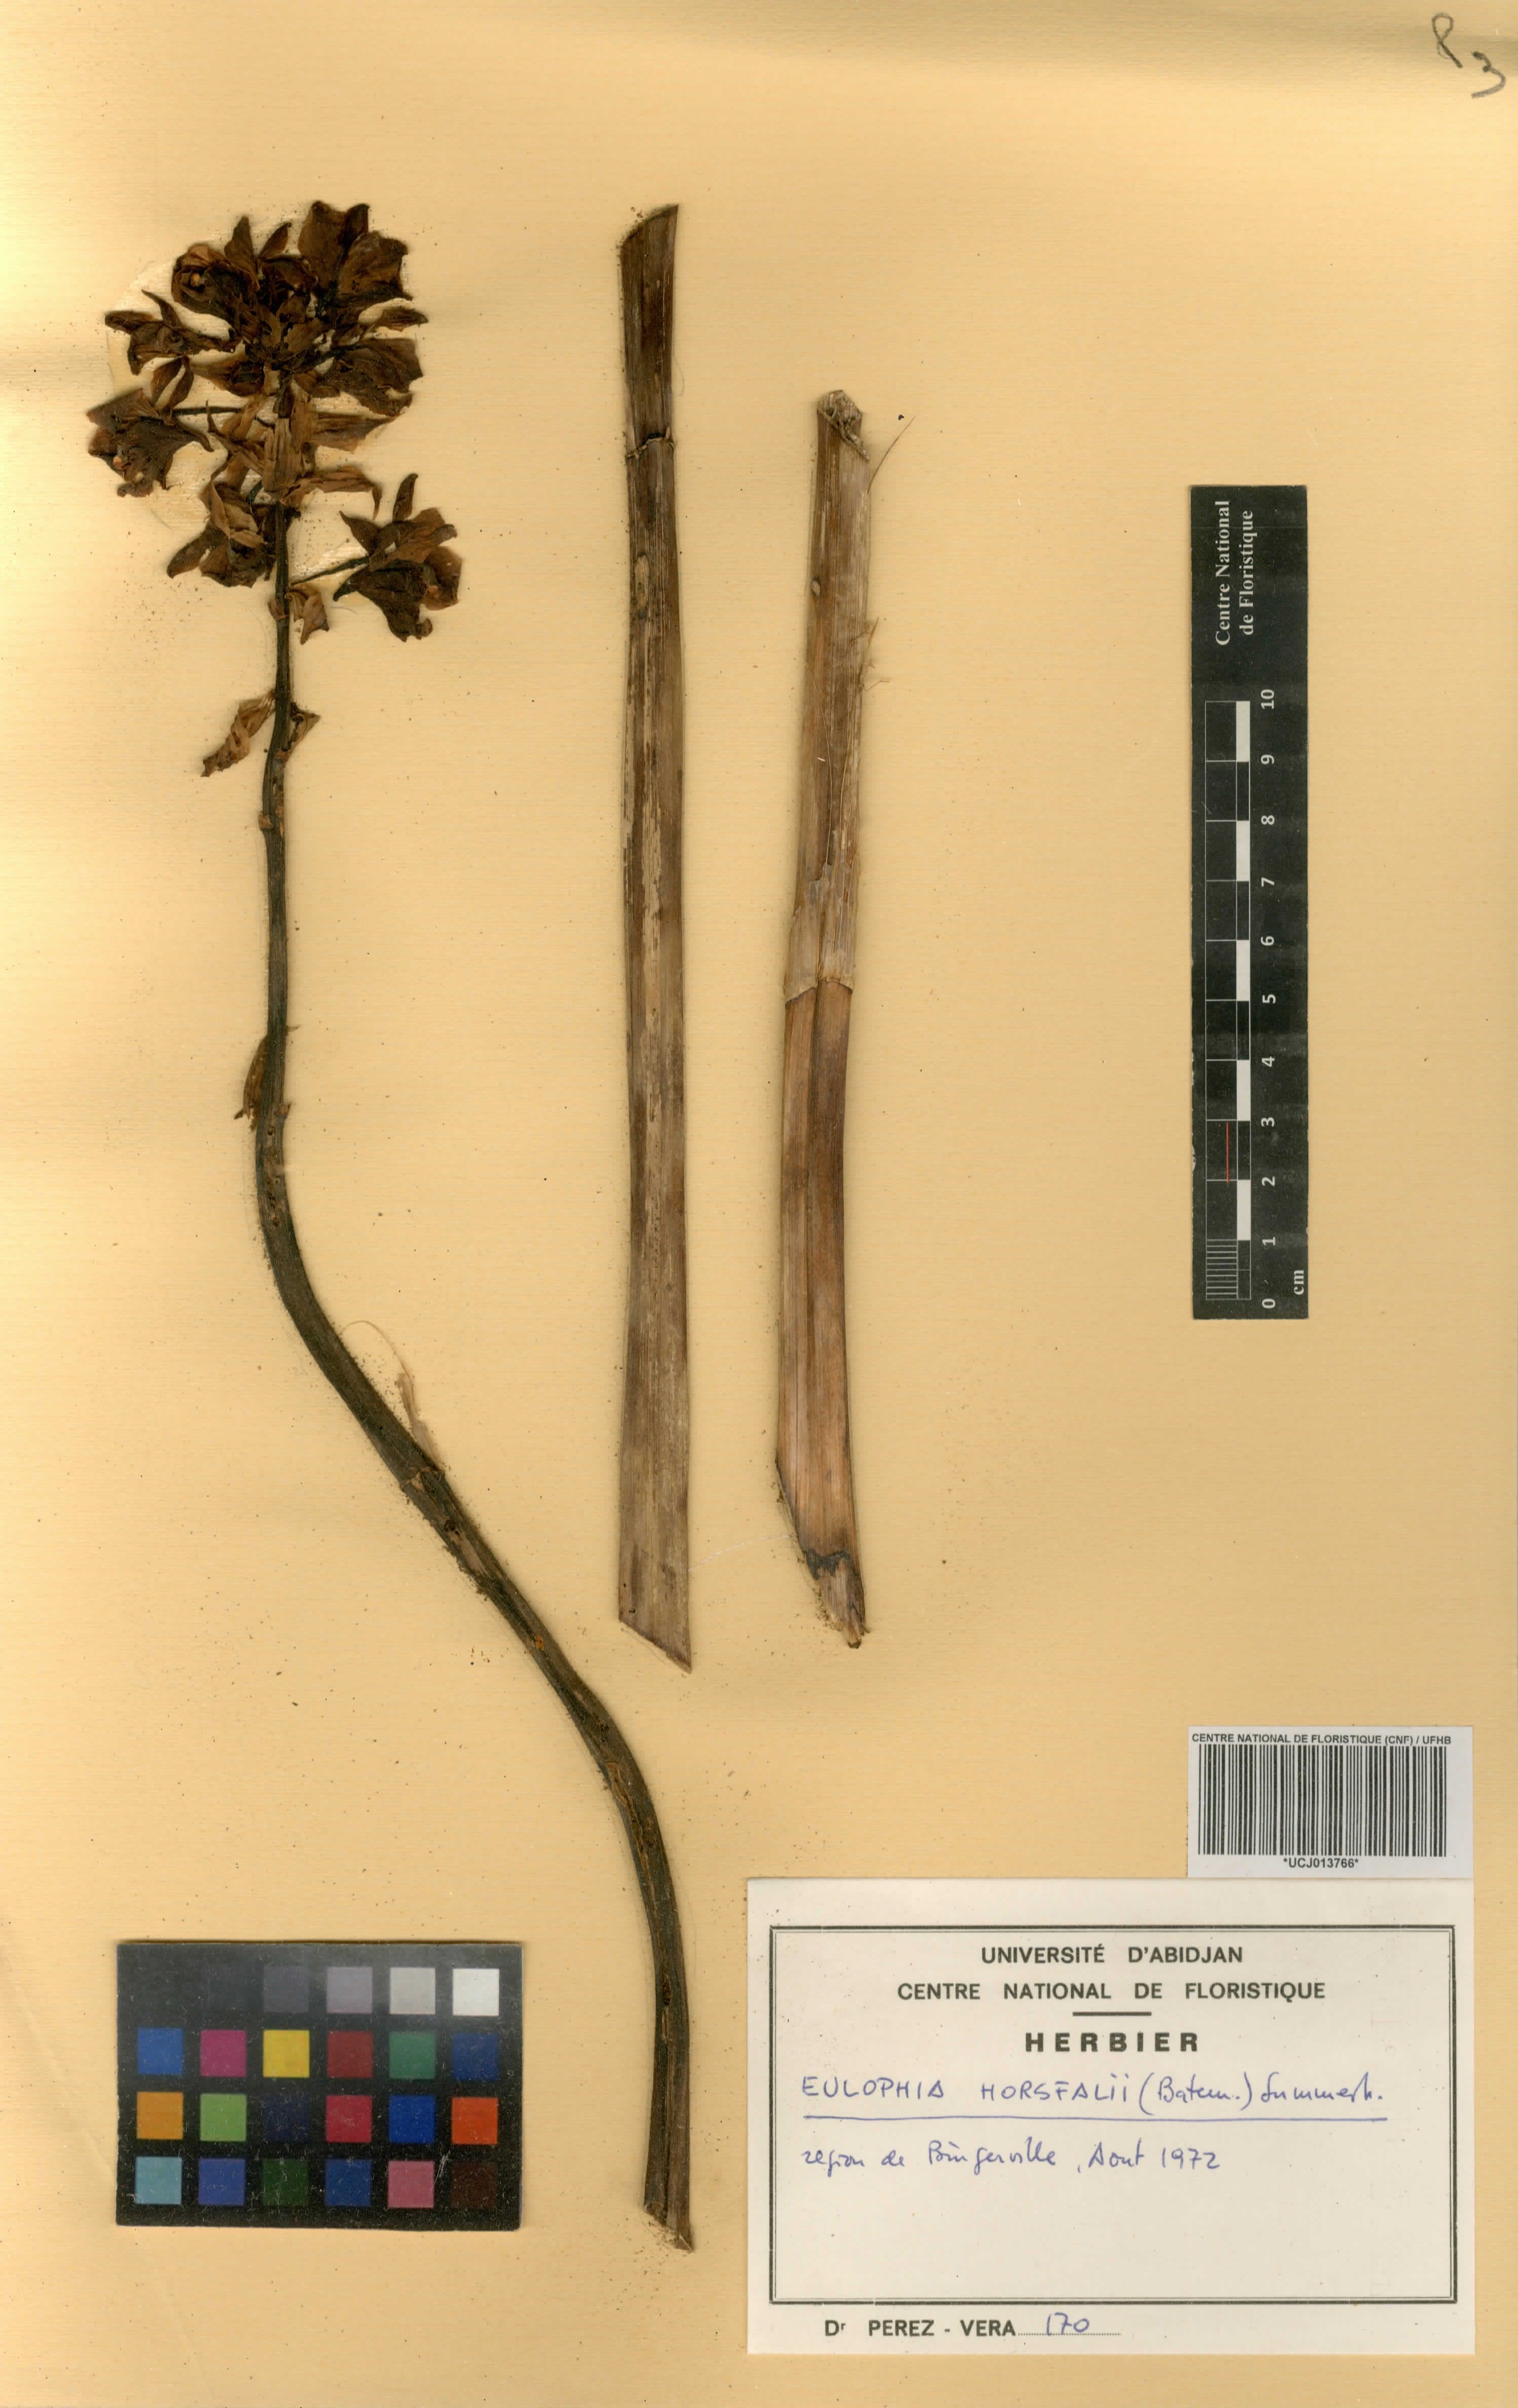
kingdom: Plantae
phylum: Tracheophyta
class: Liliopsida
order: Asparagales
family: Orchidaceae
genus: Eulophia
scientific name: Eulophia horsfallii
